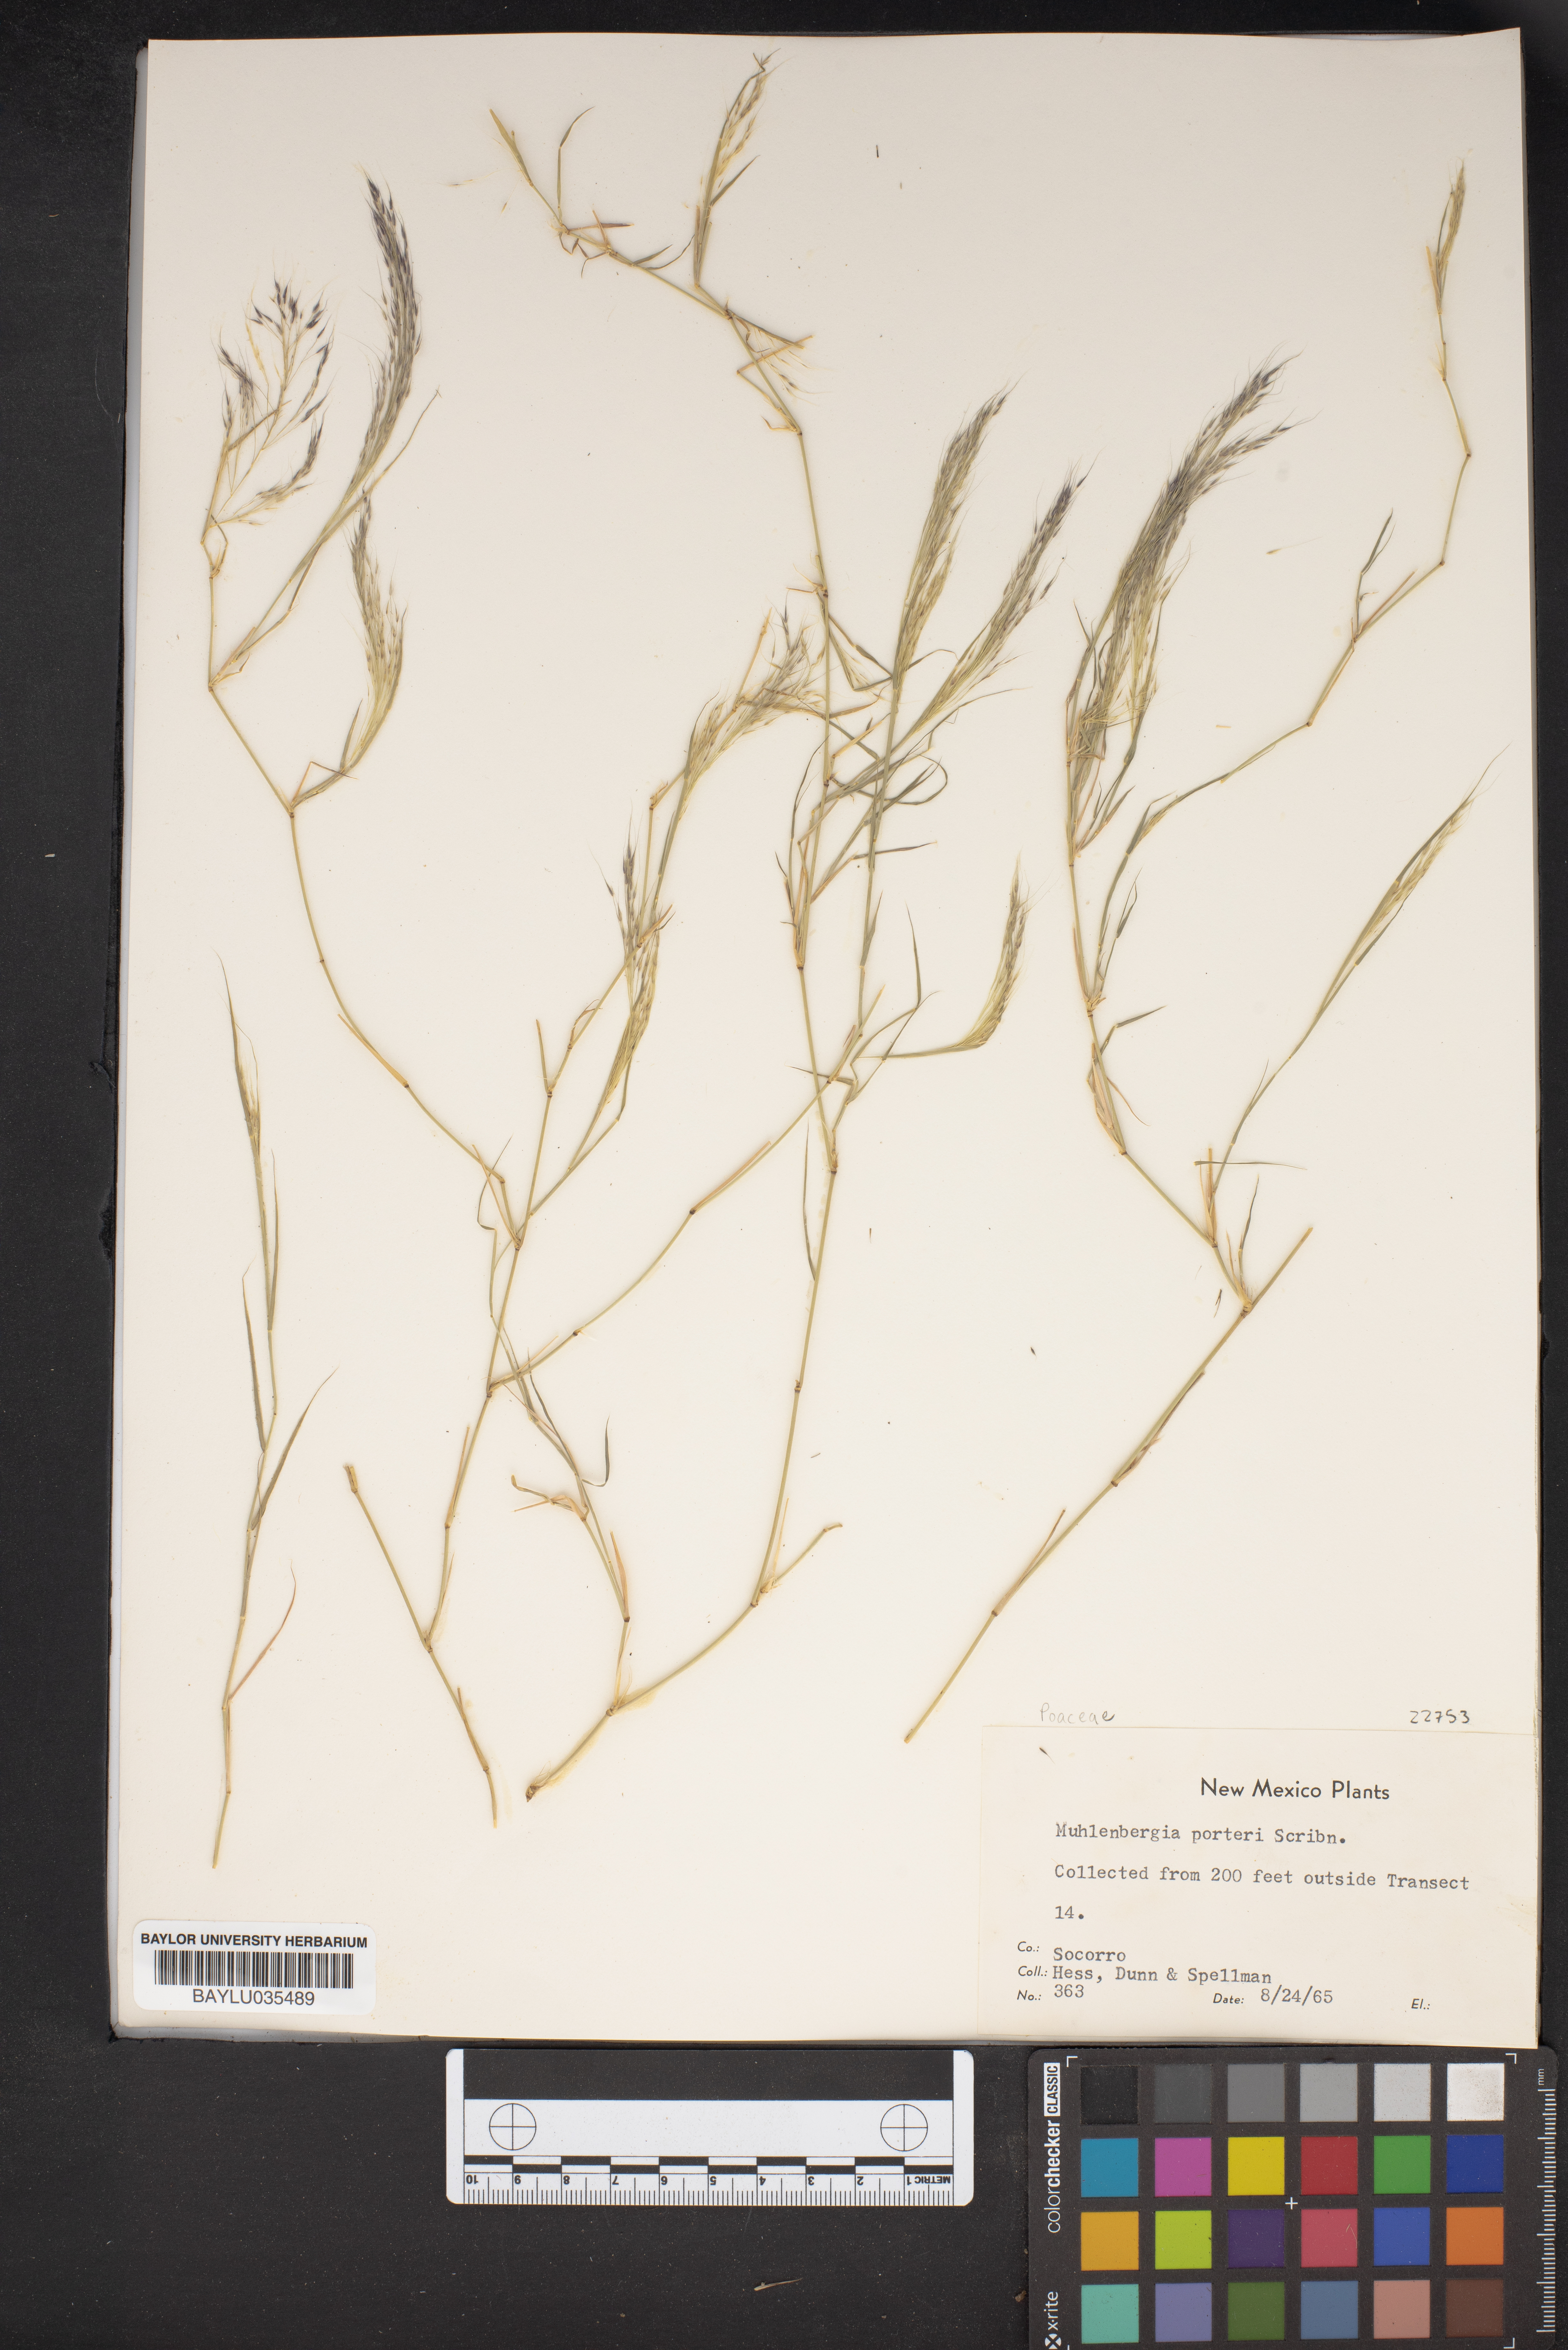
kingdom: Plantae
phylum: Tracheophyta
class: Liliopsida
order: Poales
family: Poaceae
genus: Muhlenbergia
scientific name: Muhlenbergia porteri
